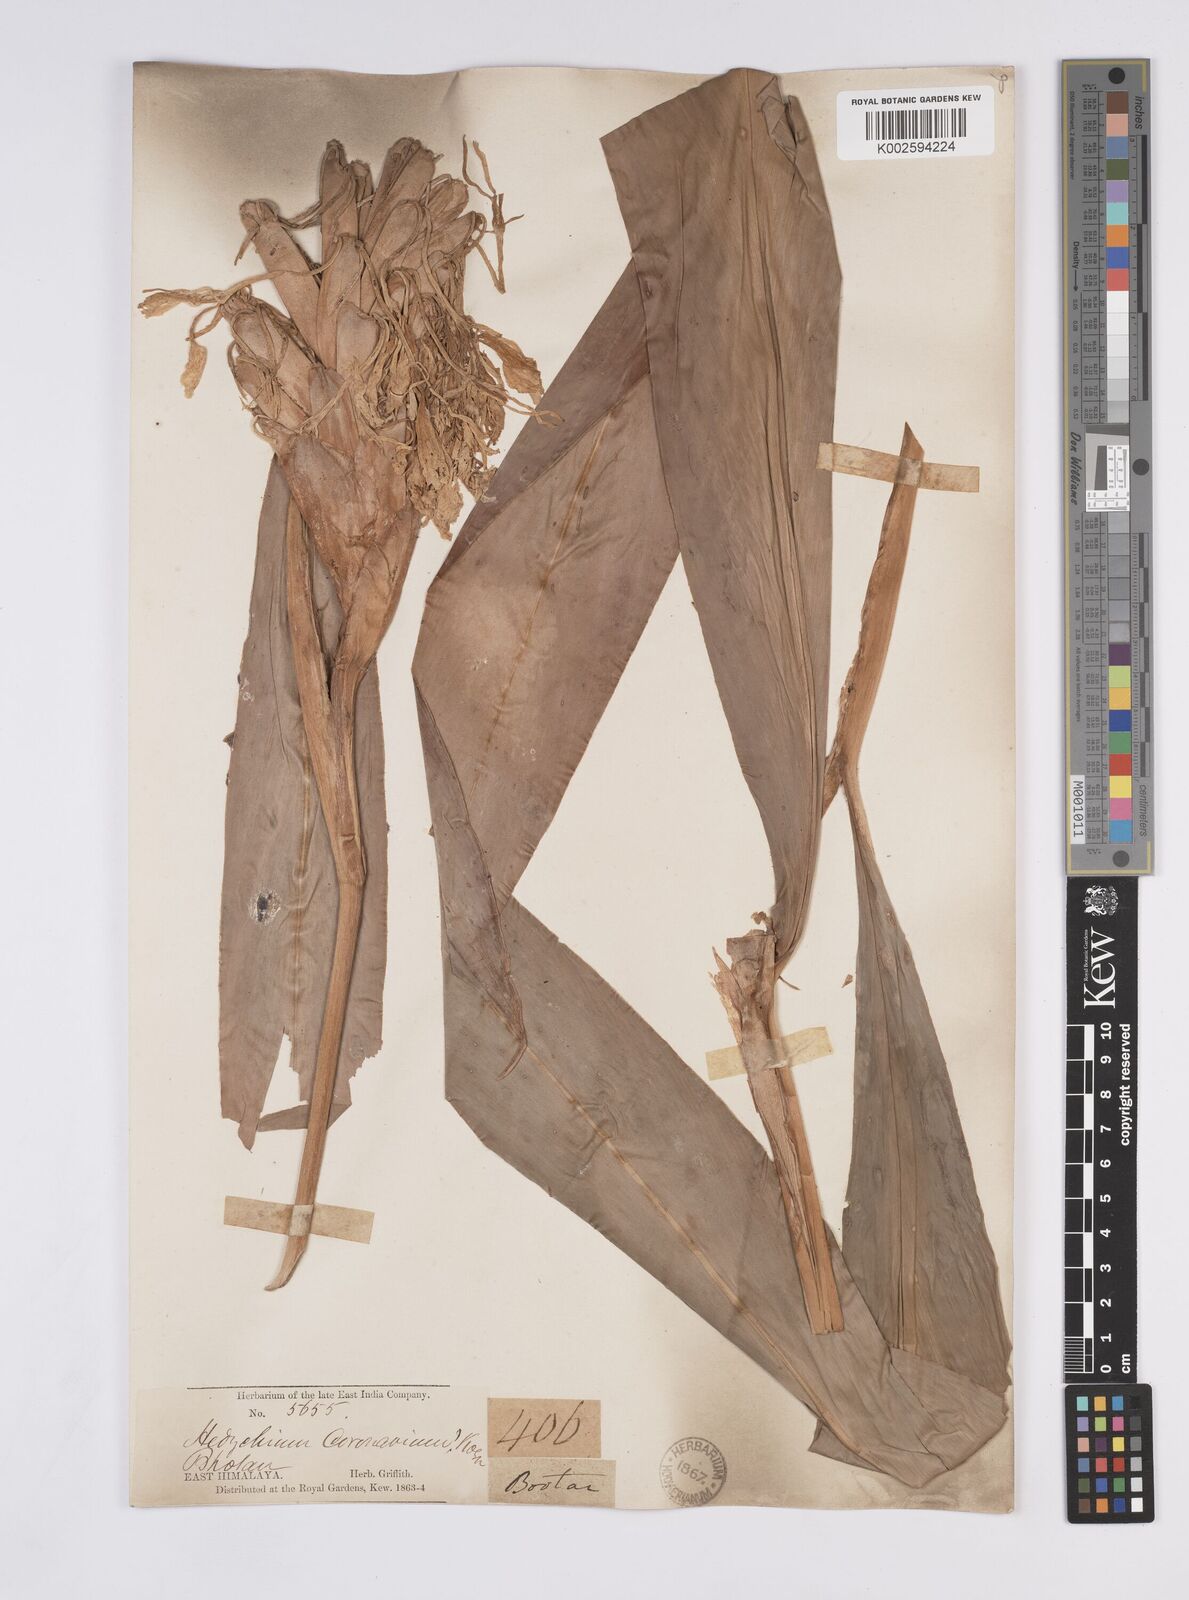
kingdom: Plantae
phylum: Tracheophyta
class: Liliopsida
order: Zingiberales
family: Zingiberaceae
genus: Hedychium
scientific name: Hedychium coronarium
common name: White garland-lily
